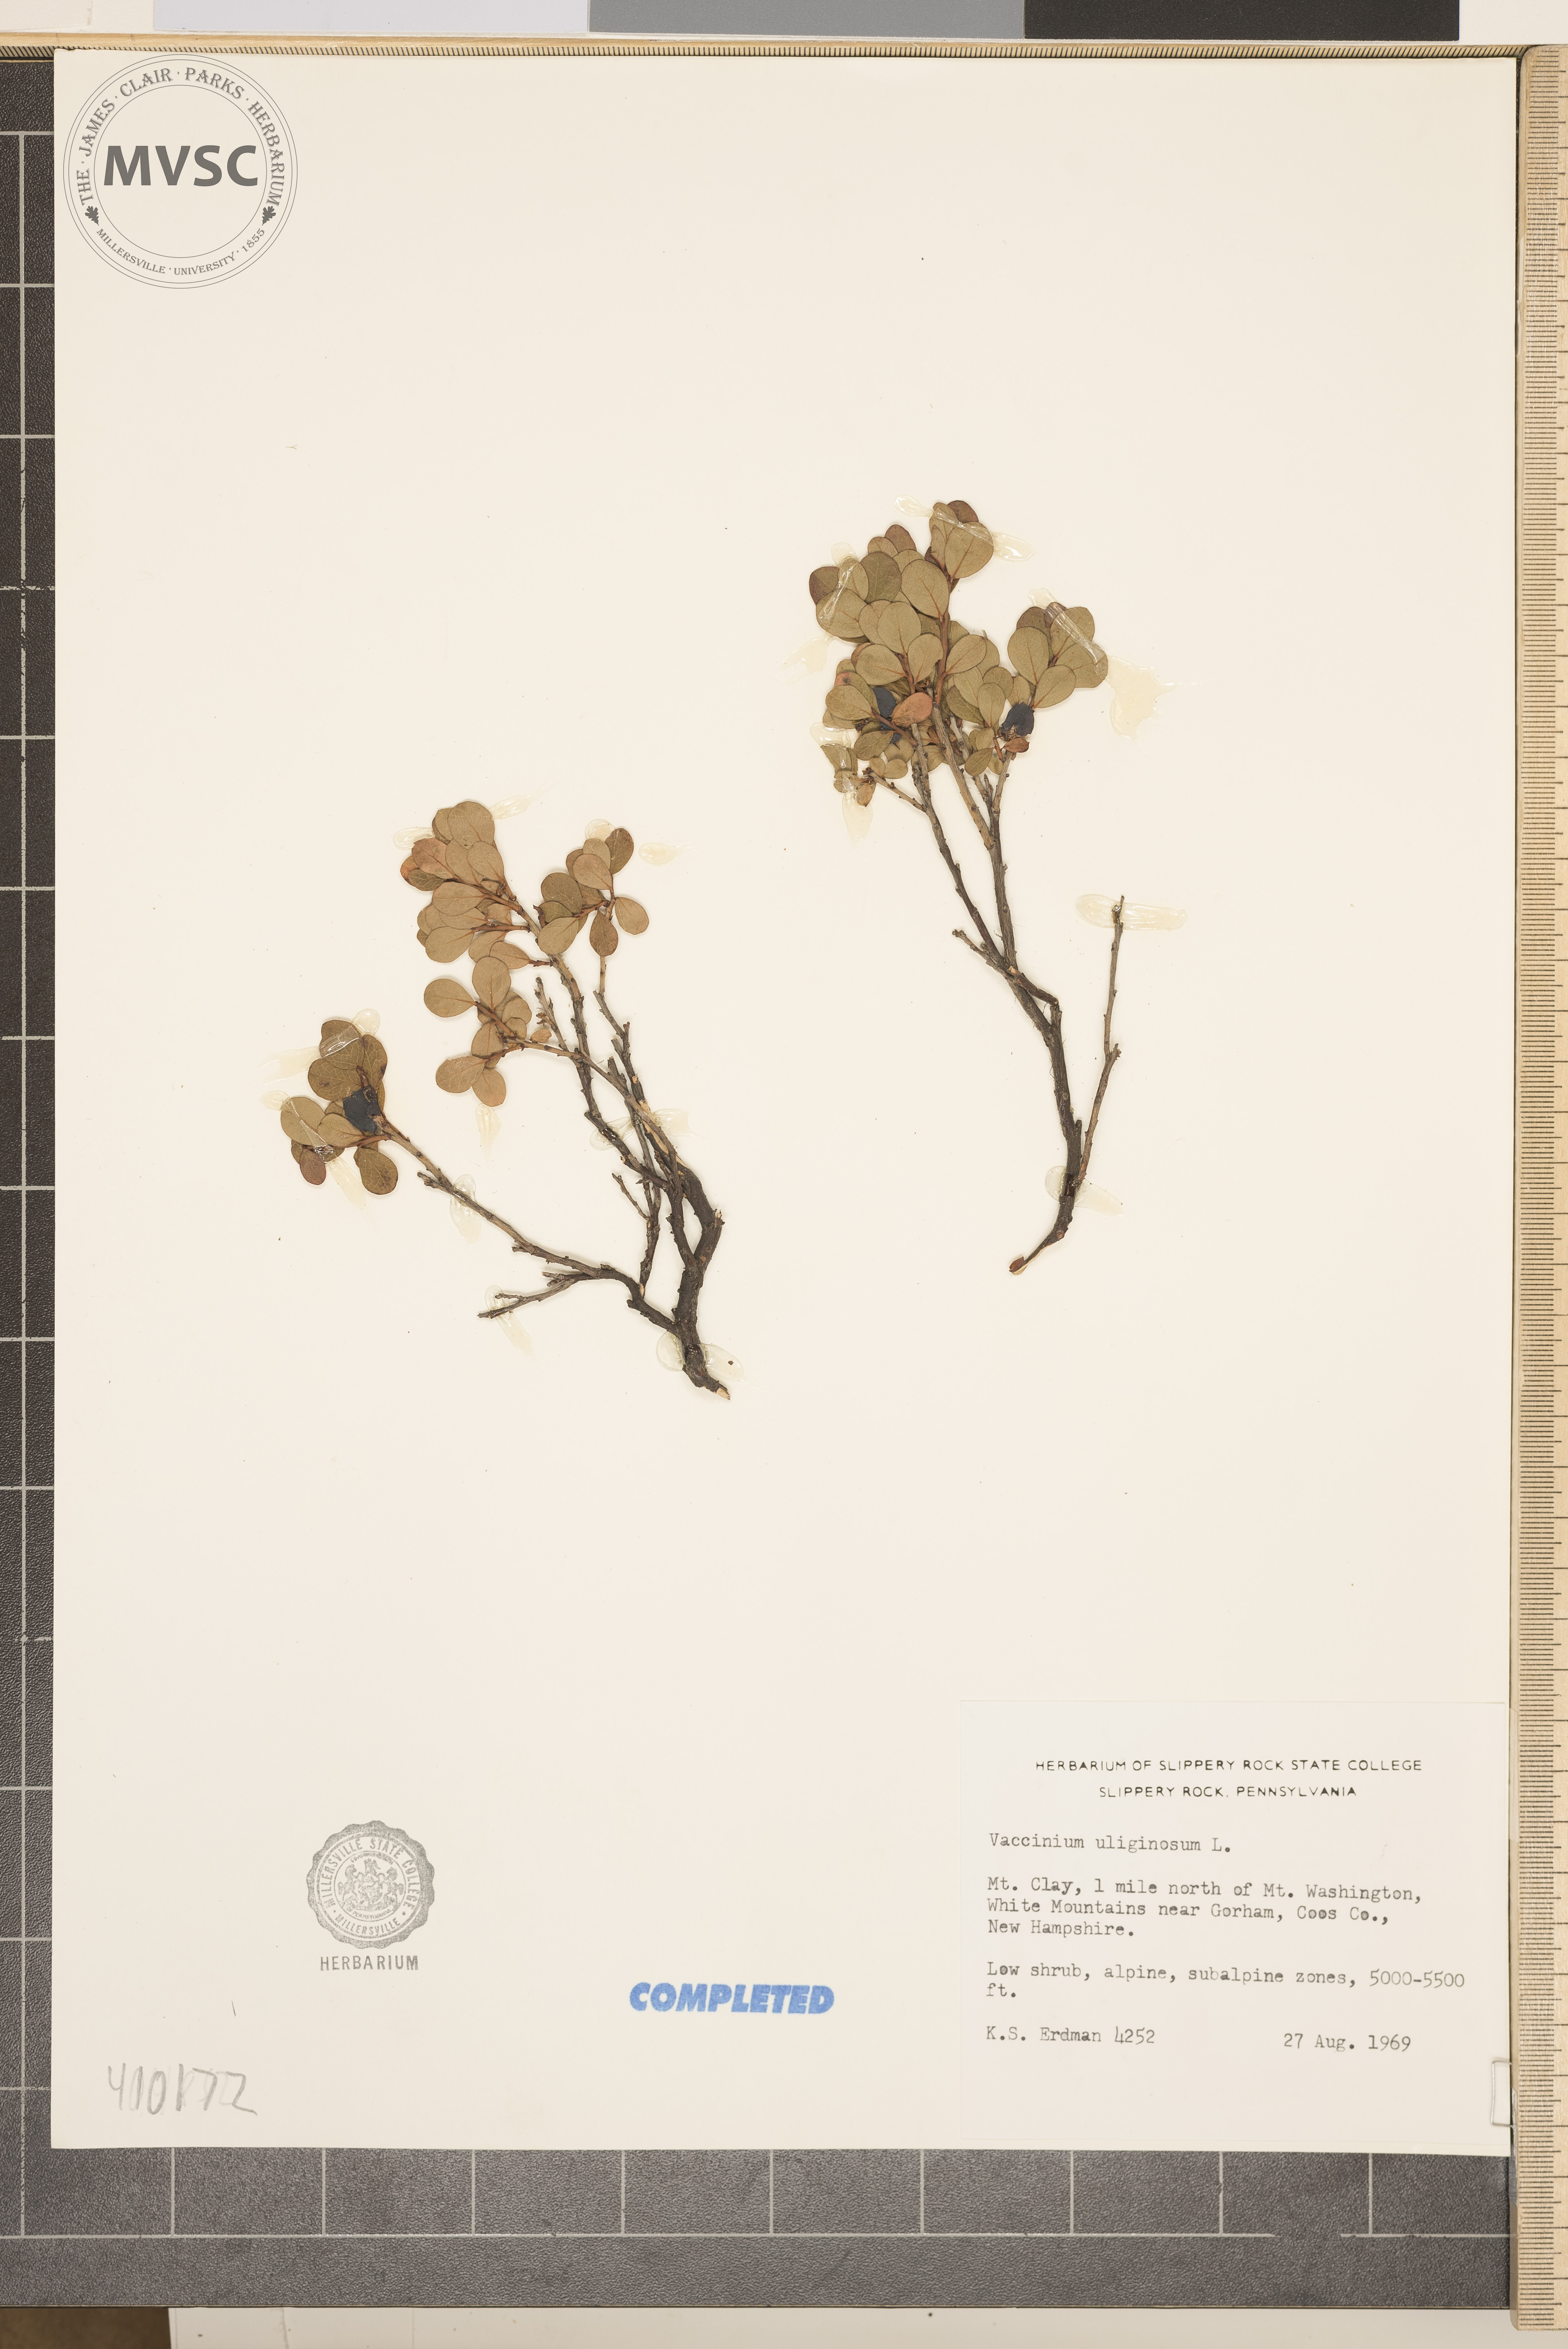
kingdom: Plantae
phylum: Tracheophyta
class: Magnoliopsida
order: Ericales
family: Ericaceae
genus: Vaccinium
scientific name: Vaccinium uliginosum
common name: Bog bilberry
